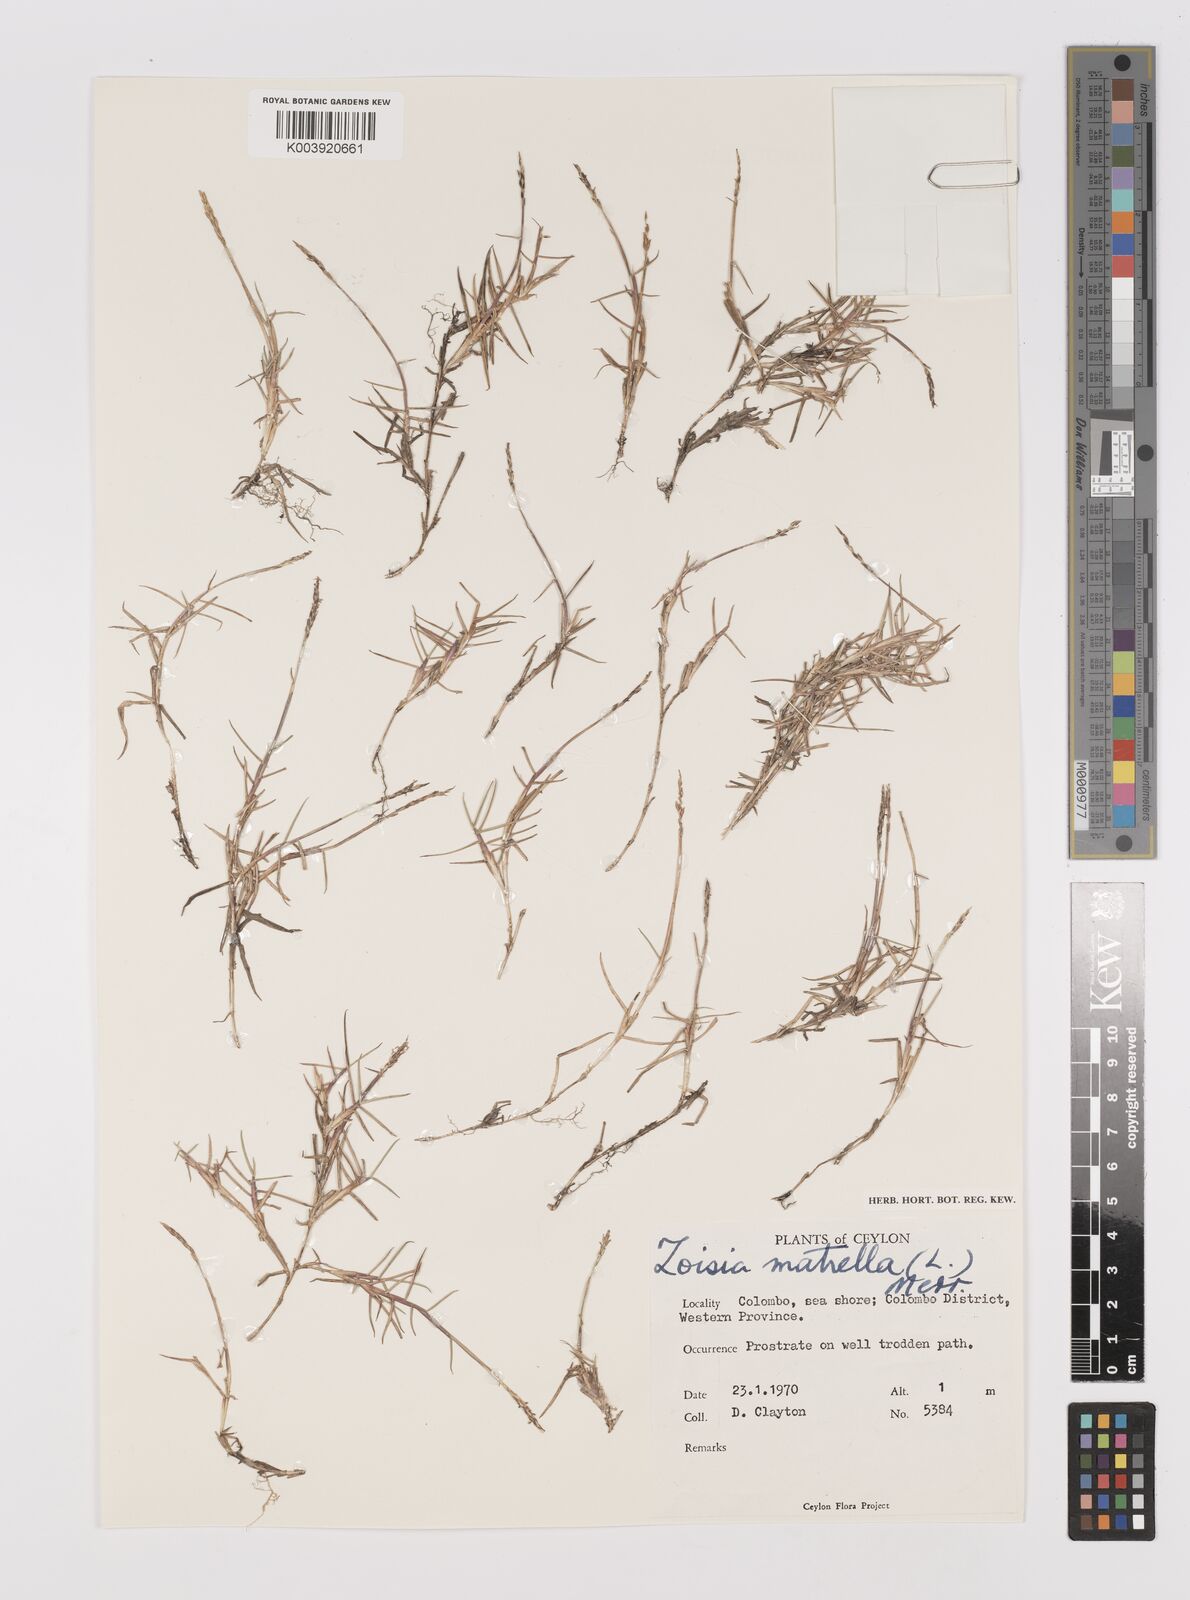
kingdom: Plantae
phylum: Tracheophyta
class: Liliopsida
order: Poales
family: Poaceae
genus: Zoysia
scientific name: Zoysia matrella
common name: Manila grass
